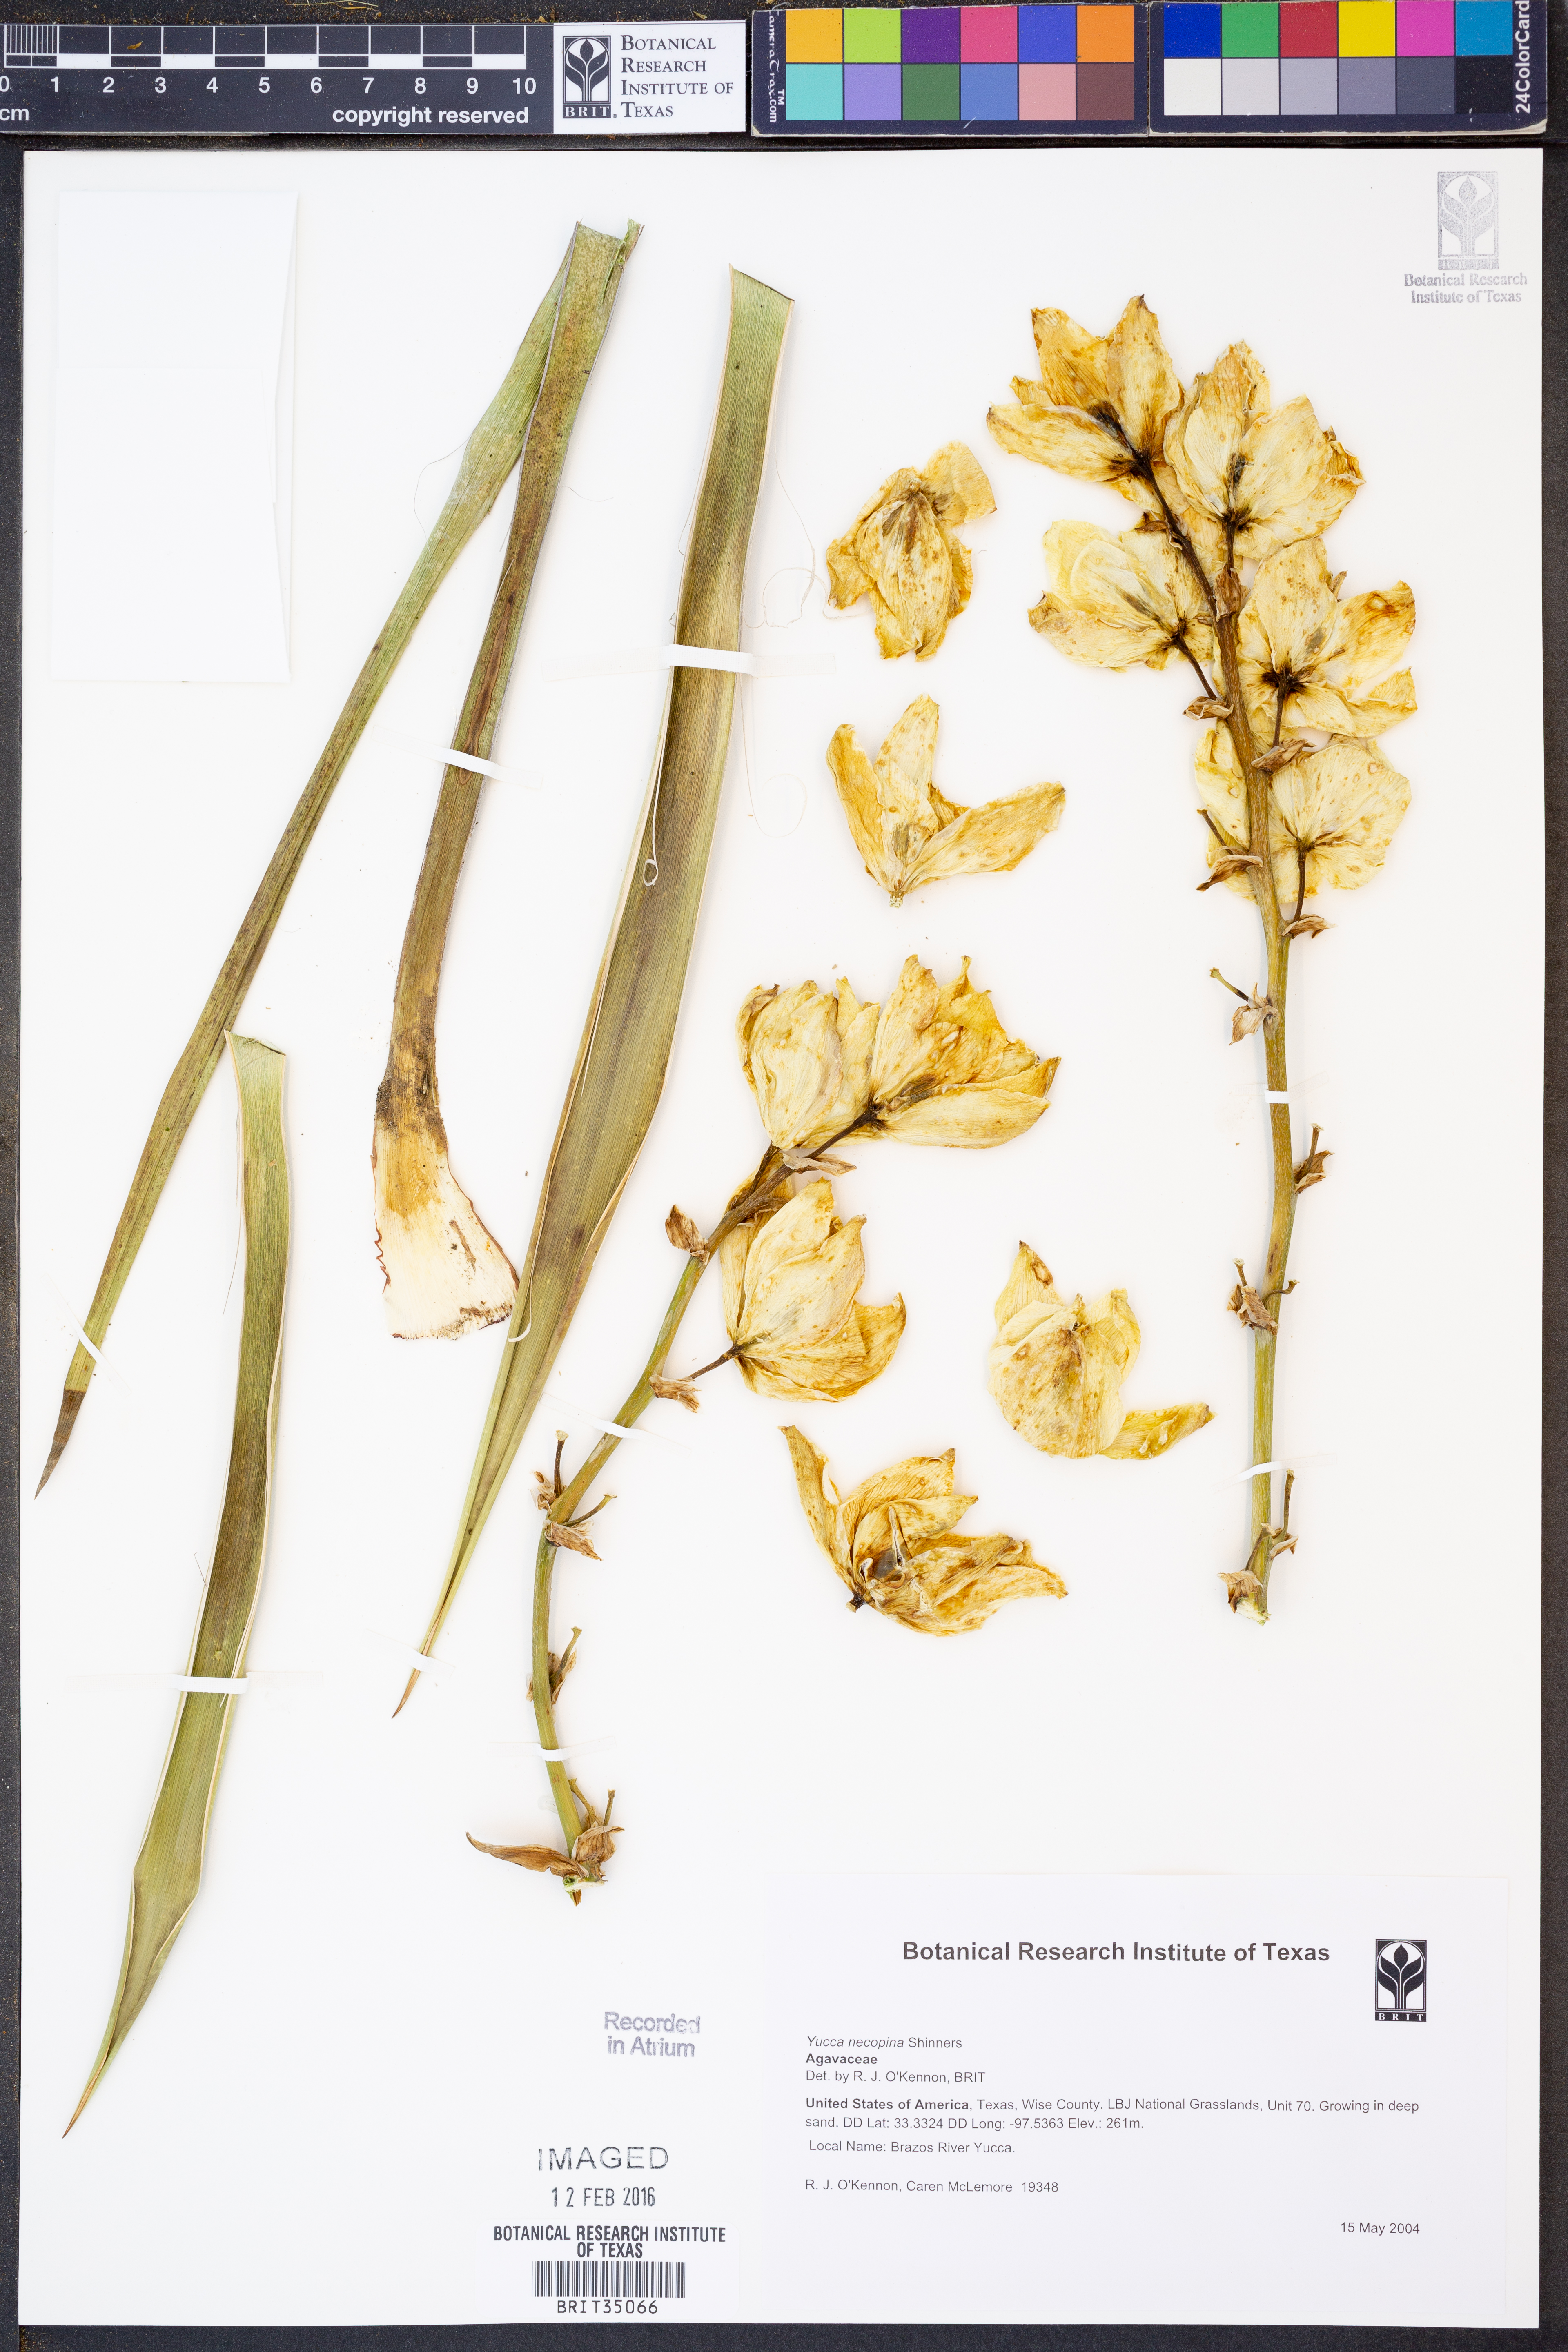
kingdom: Plantae
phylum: Tracheophyta
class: Liliopsida
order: Asparagales
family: Asparagaceae
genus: Yucca
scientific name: Yucca necopina
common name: Glen rose yucca
